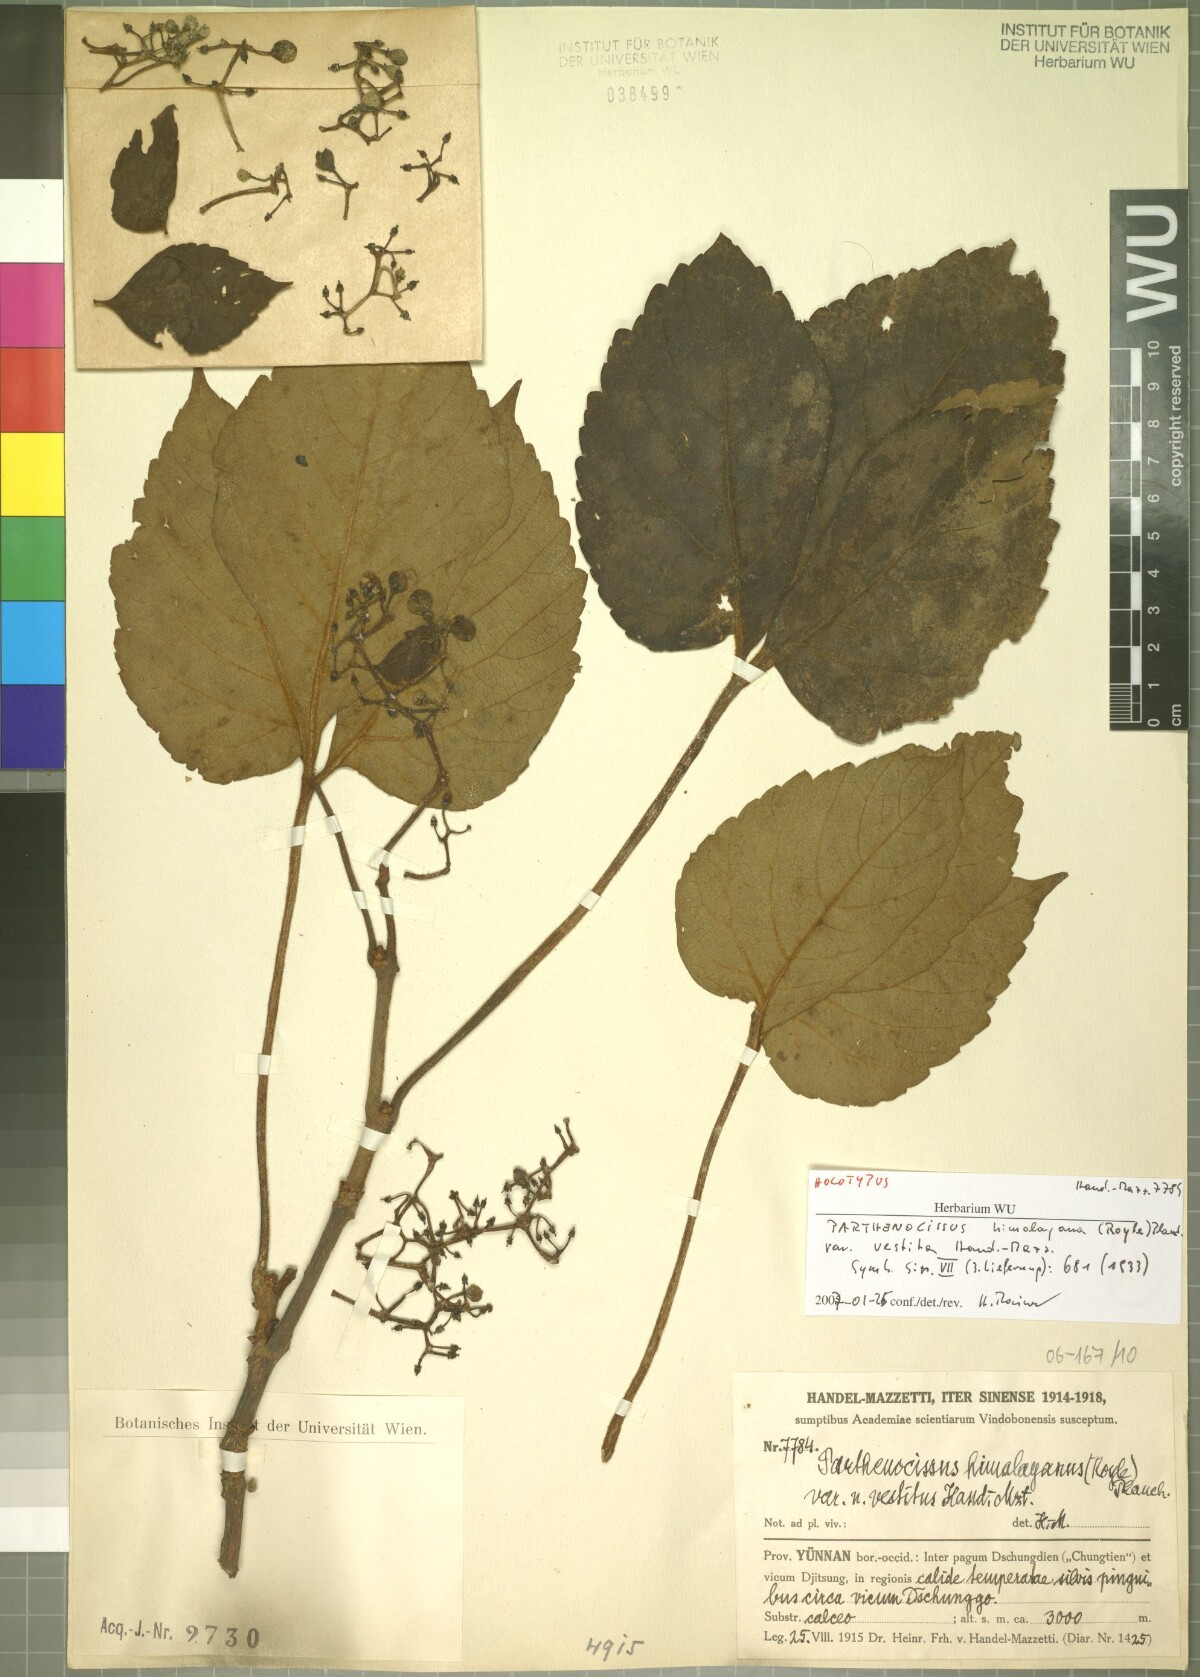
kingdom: Plantae
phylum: Tracheophyta
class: Magnoliopsida
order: Vitales
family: Vitaceae
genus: Parthenocissus
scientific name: Parthenocissus semicordata
